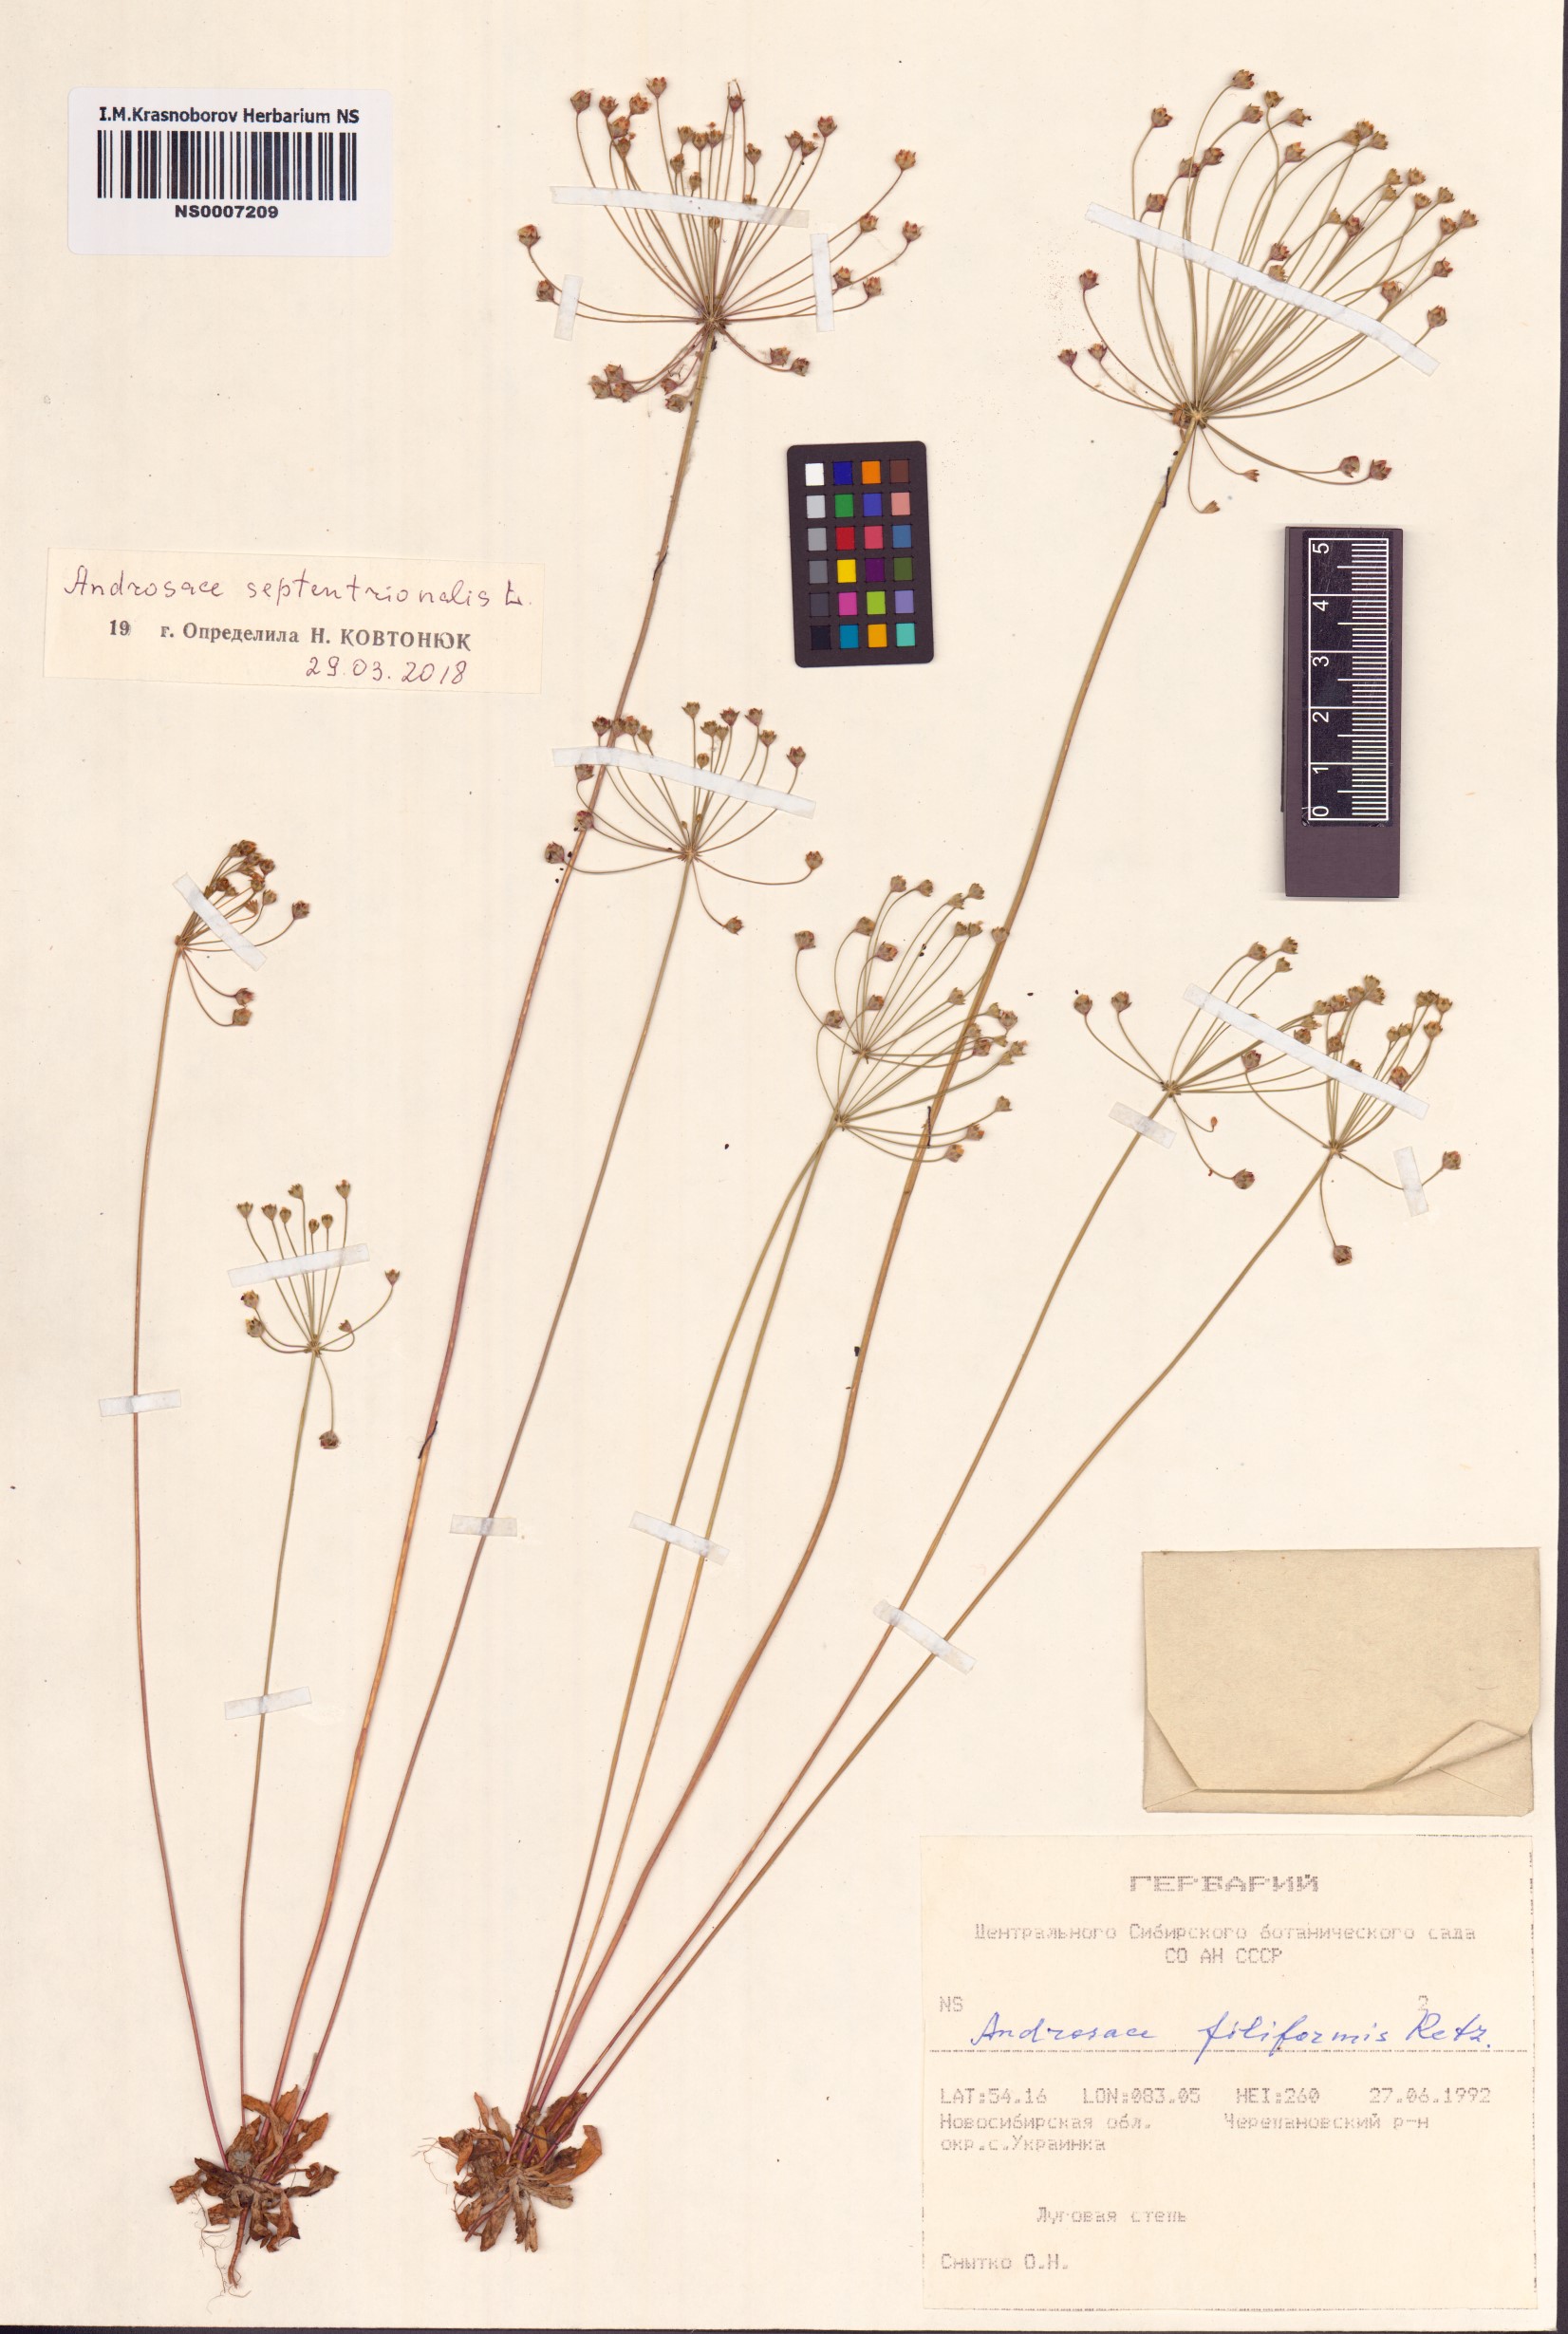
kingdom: Plantae
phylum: Tracheophyta
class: Magnoliopsida
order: Ericales
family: Primulaceae
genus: Androsace
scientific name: Androsace septentrionalis
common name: Hairy northern fairy-candelabra
